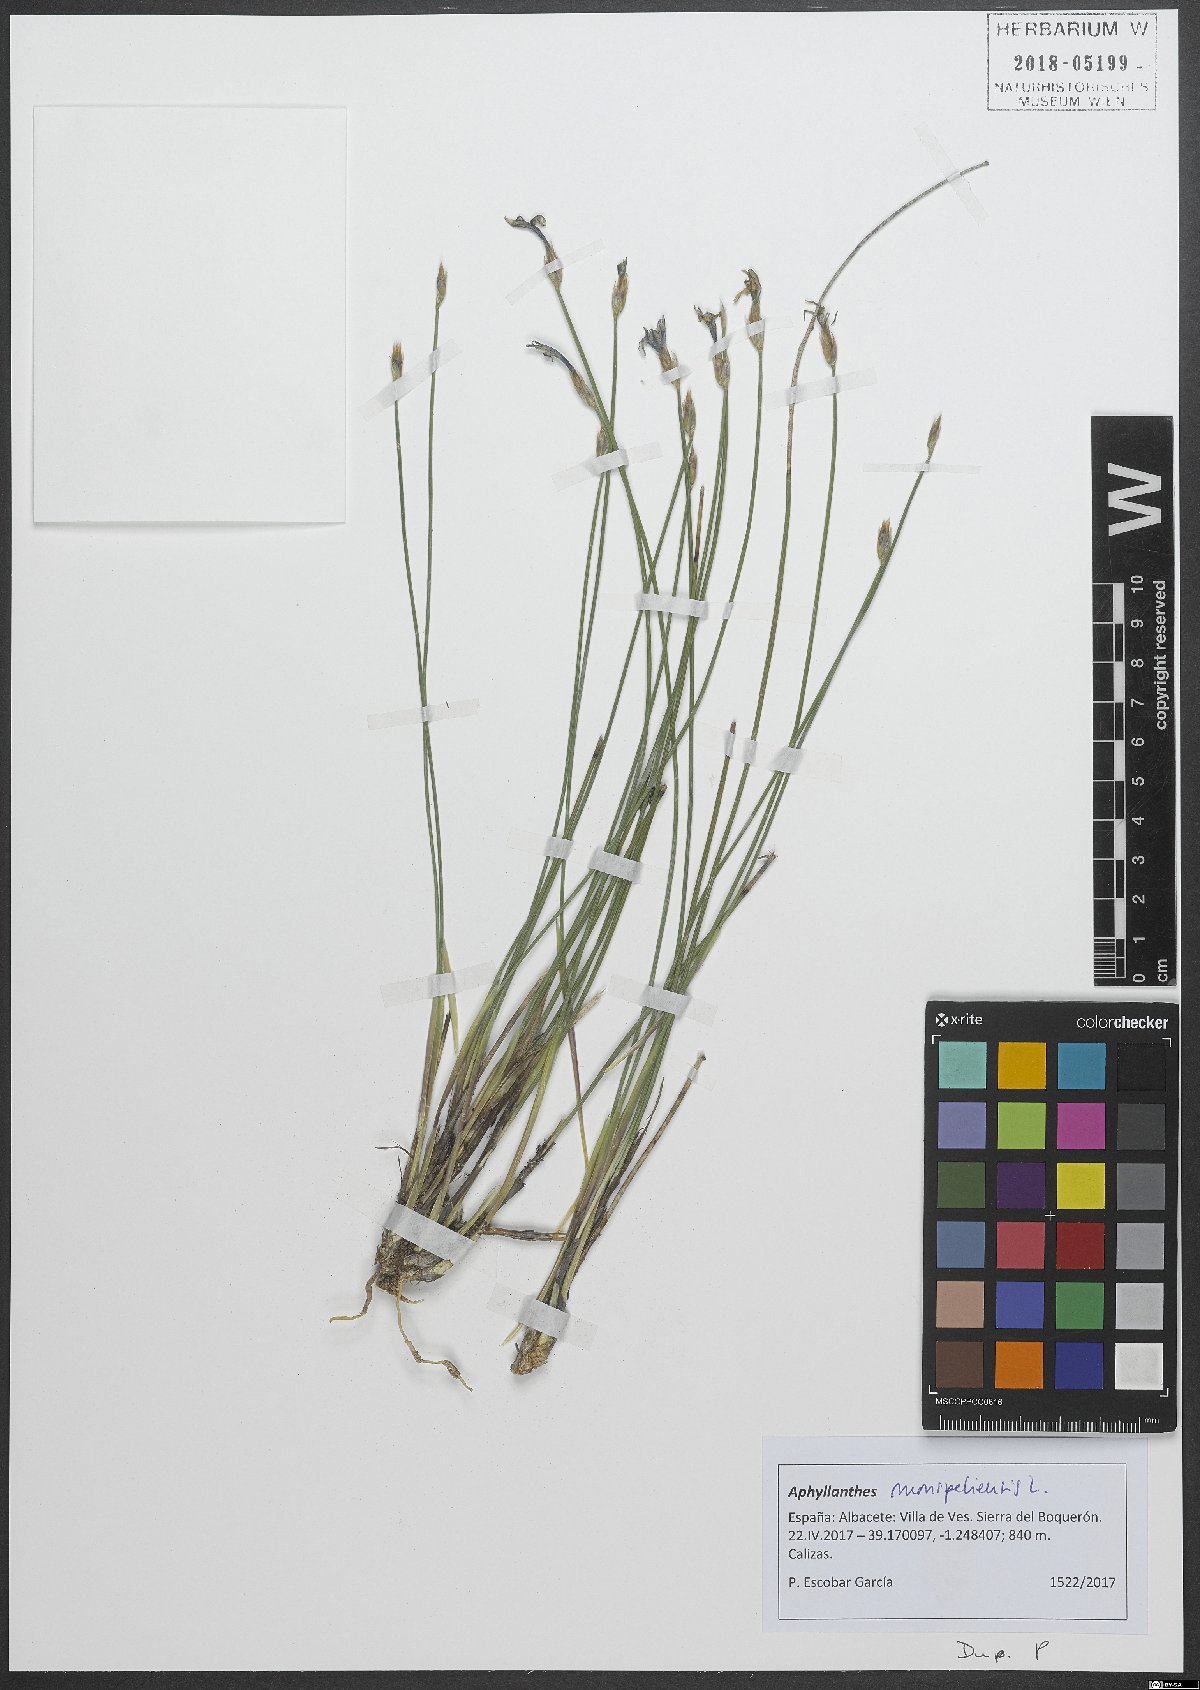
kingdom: Plantae
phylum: Tracheophyta
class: Liliopsida
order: Asparagales
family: Asparagaceae
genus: Aphyllanthes
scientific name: Aphyllanthes monspeliensis
